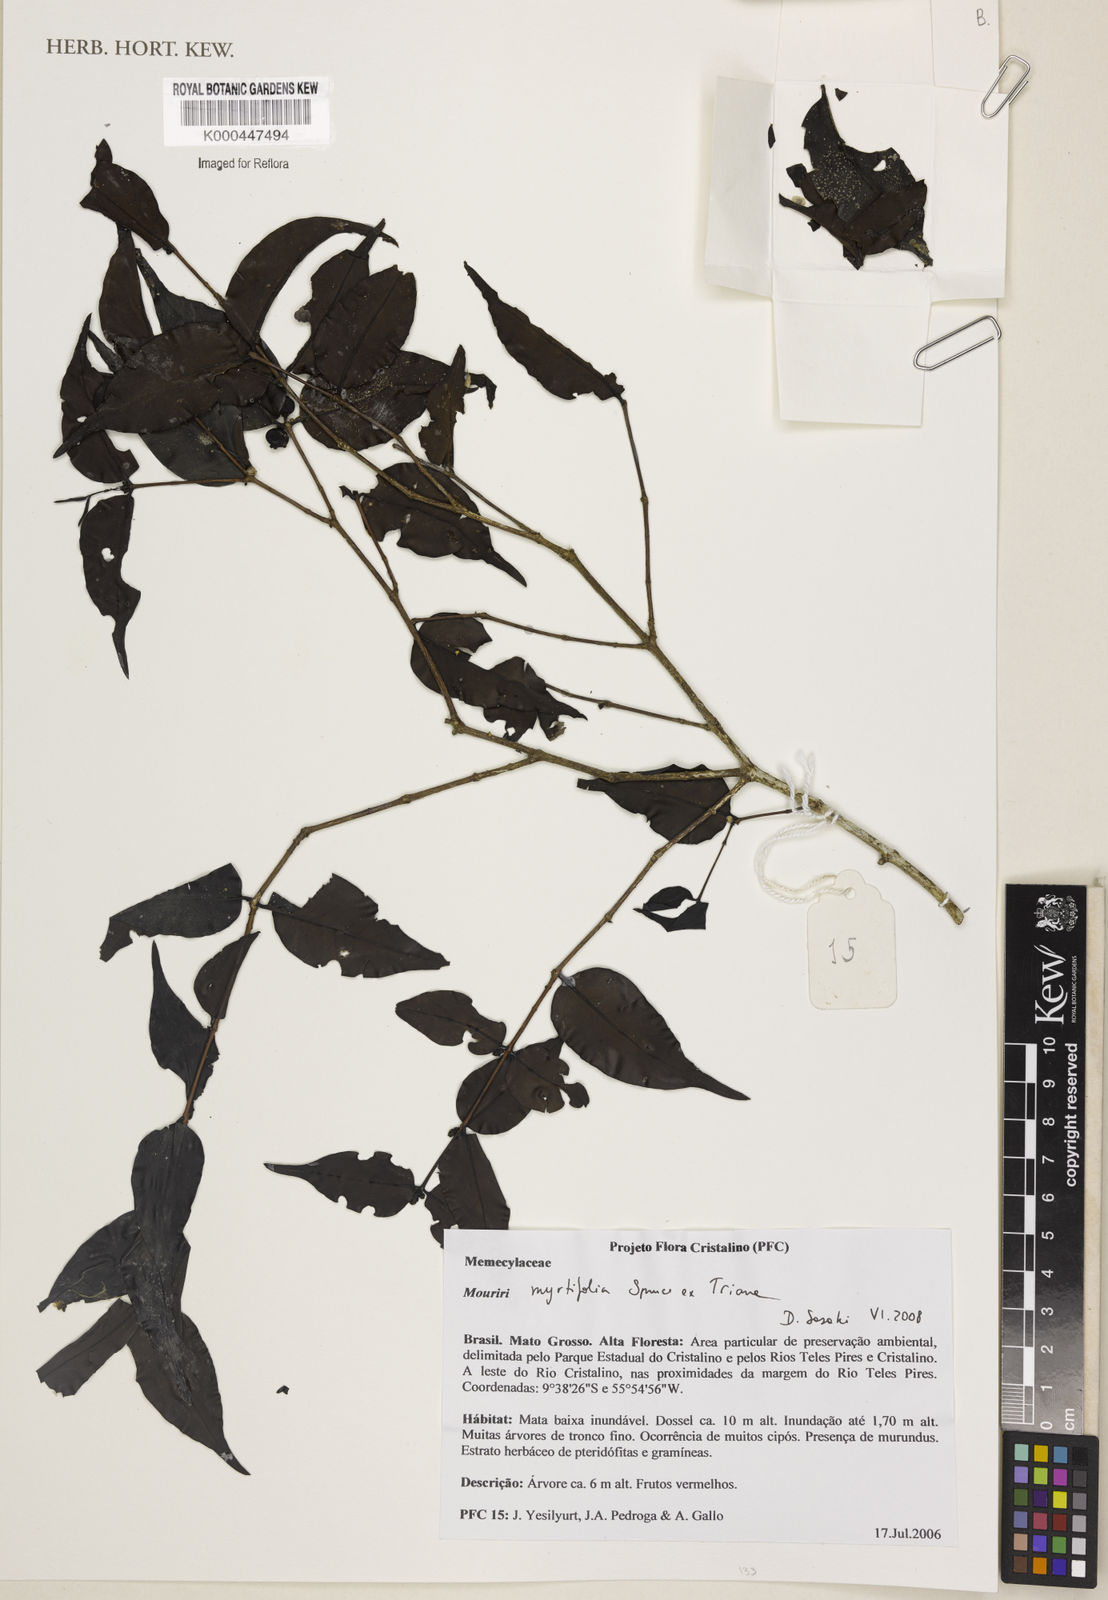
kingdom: Plantae
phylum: Tracheophyta
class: Magnoliopsida
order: Myrtales
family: Melastomataceae
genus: Mouriri
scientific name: Mouriri myrtifolia
